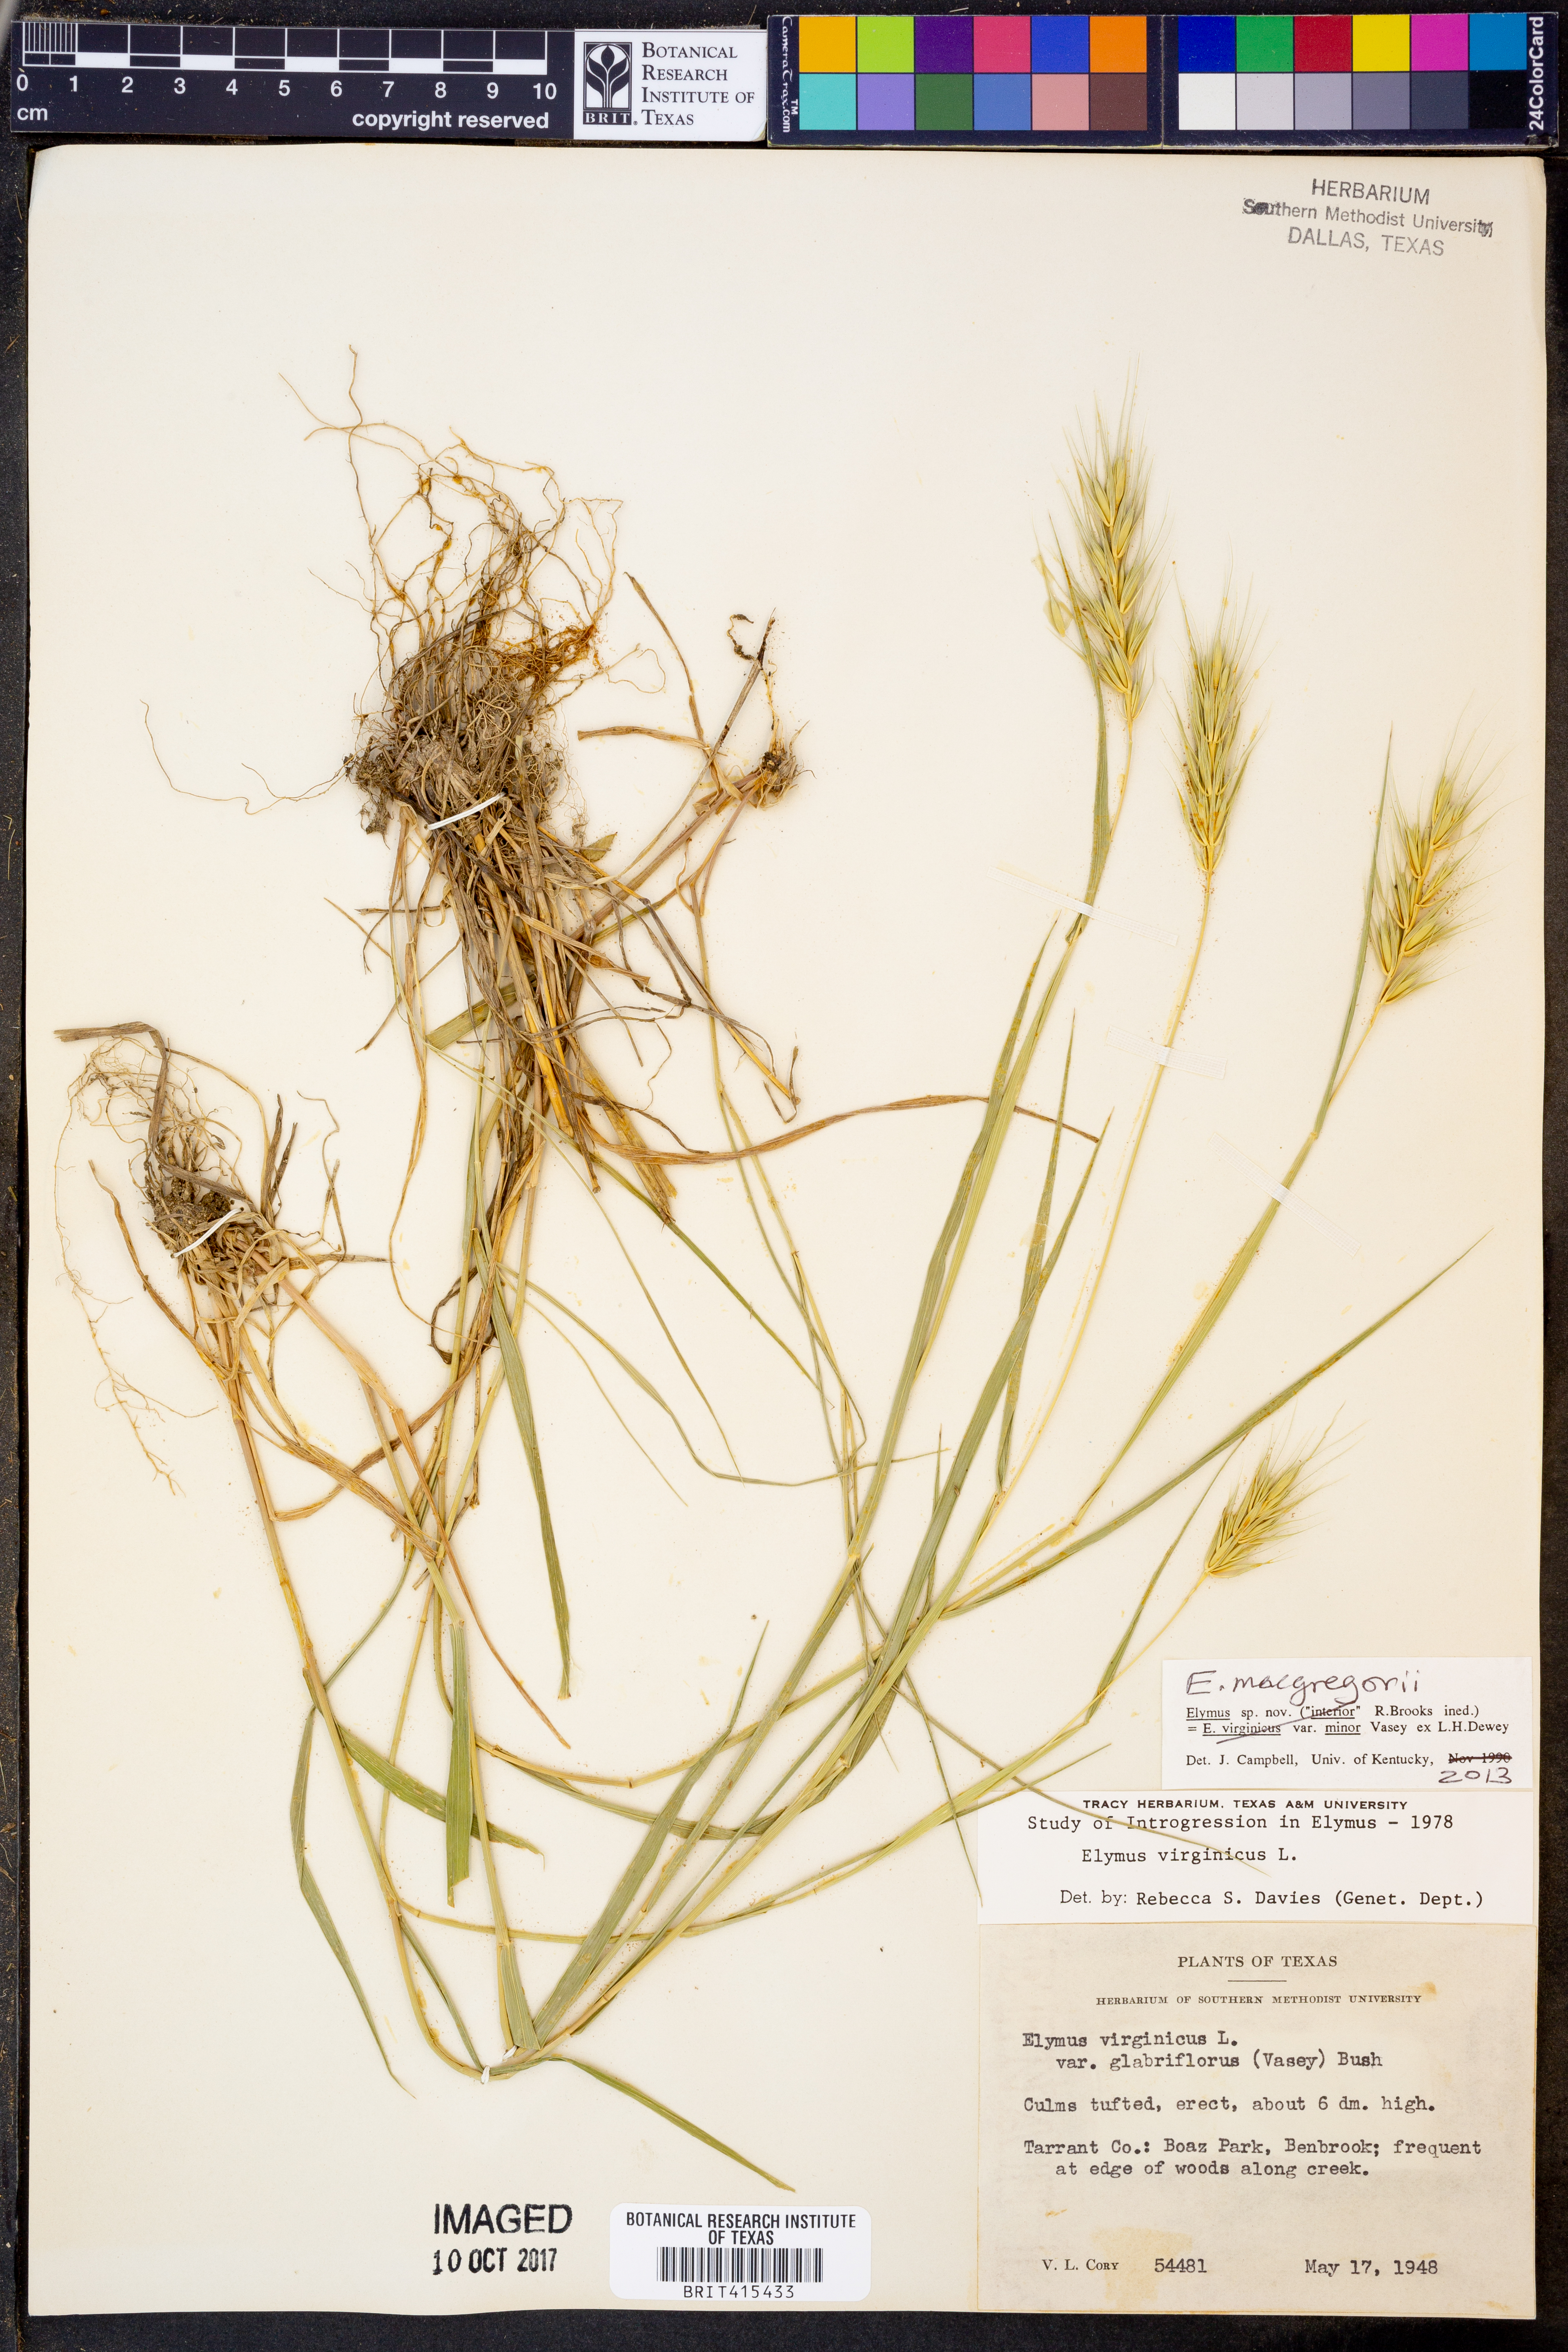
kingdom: Plantae
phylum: Tracheophyta
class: Liliopsida
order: Poales
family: Poaceae
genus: Elymus
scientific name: Elymus macgregorii
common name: Early wild rye
